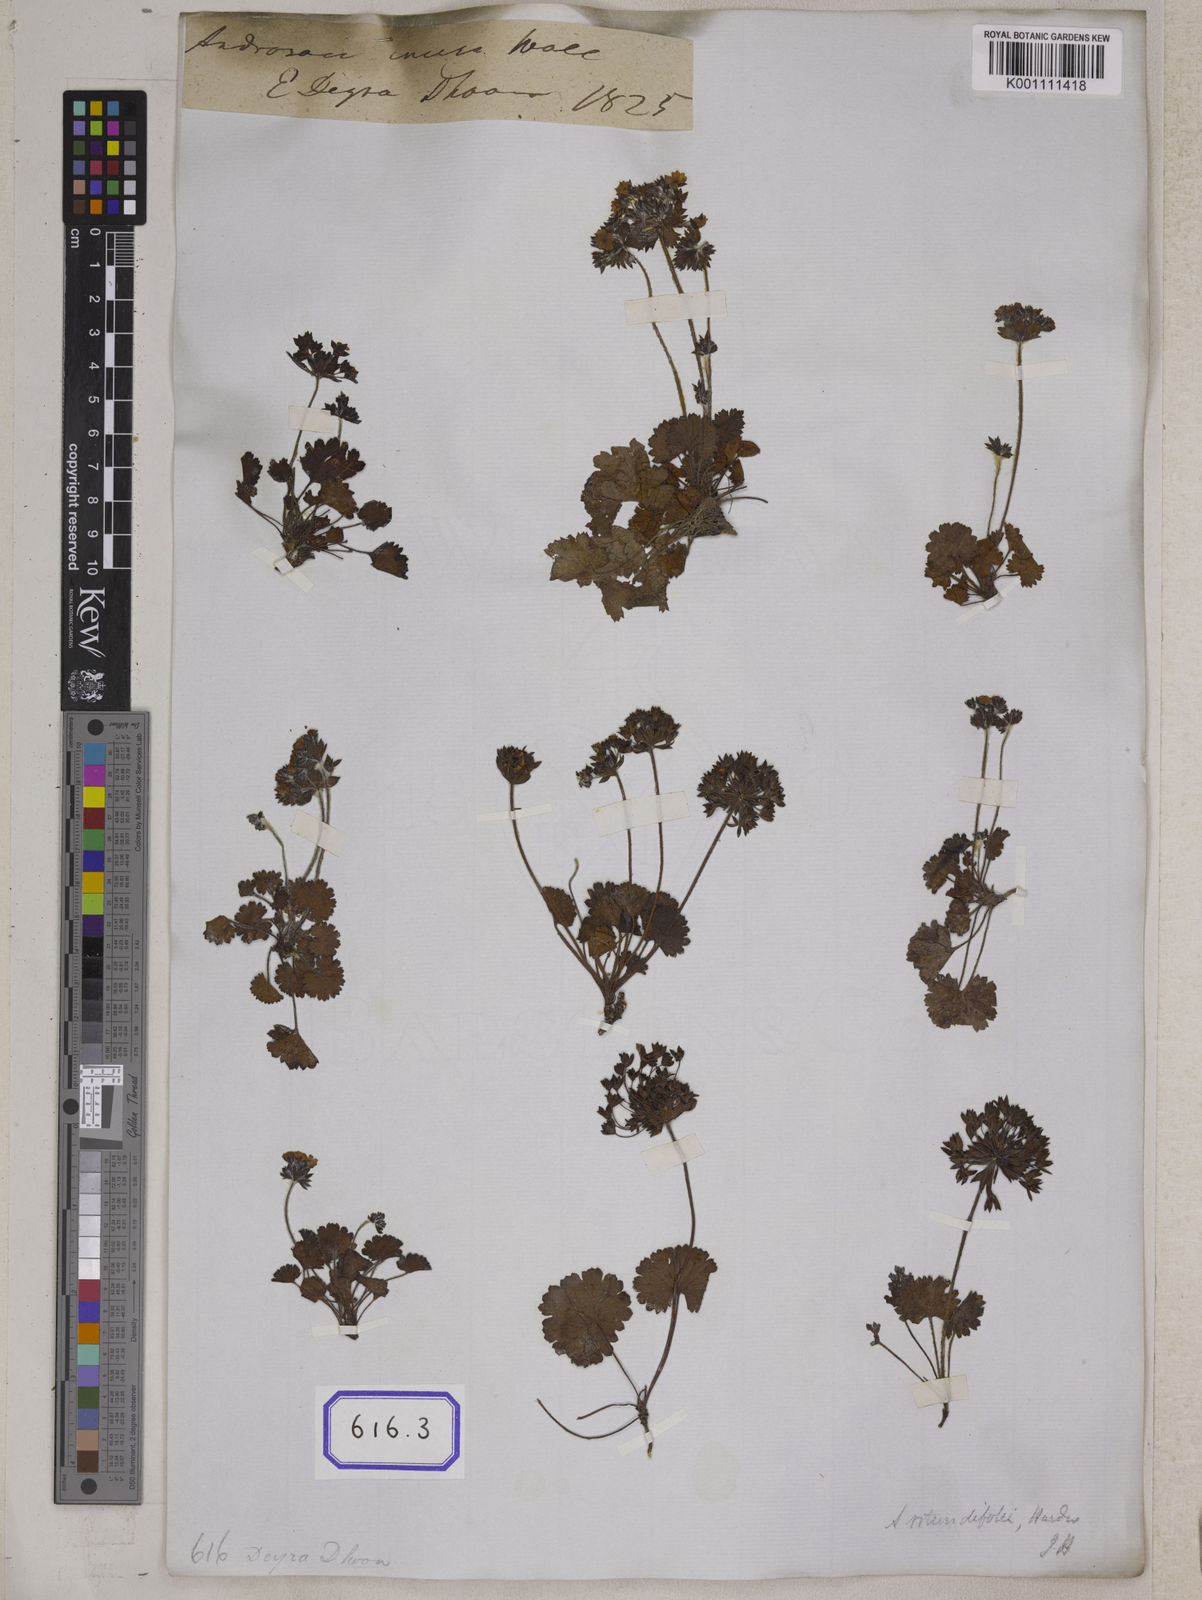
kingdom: Plantae
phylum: Tracheophyta
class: Magnoliopsida
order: Ericales
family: Primulaceae
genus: Androsace
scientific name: Androsace rotundifolia
